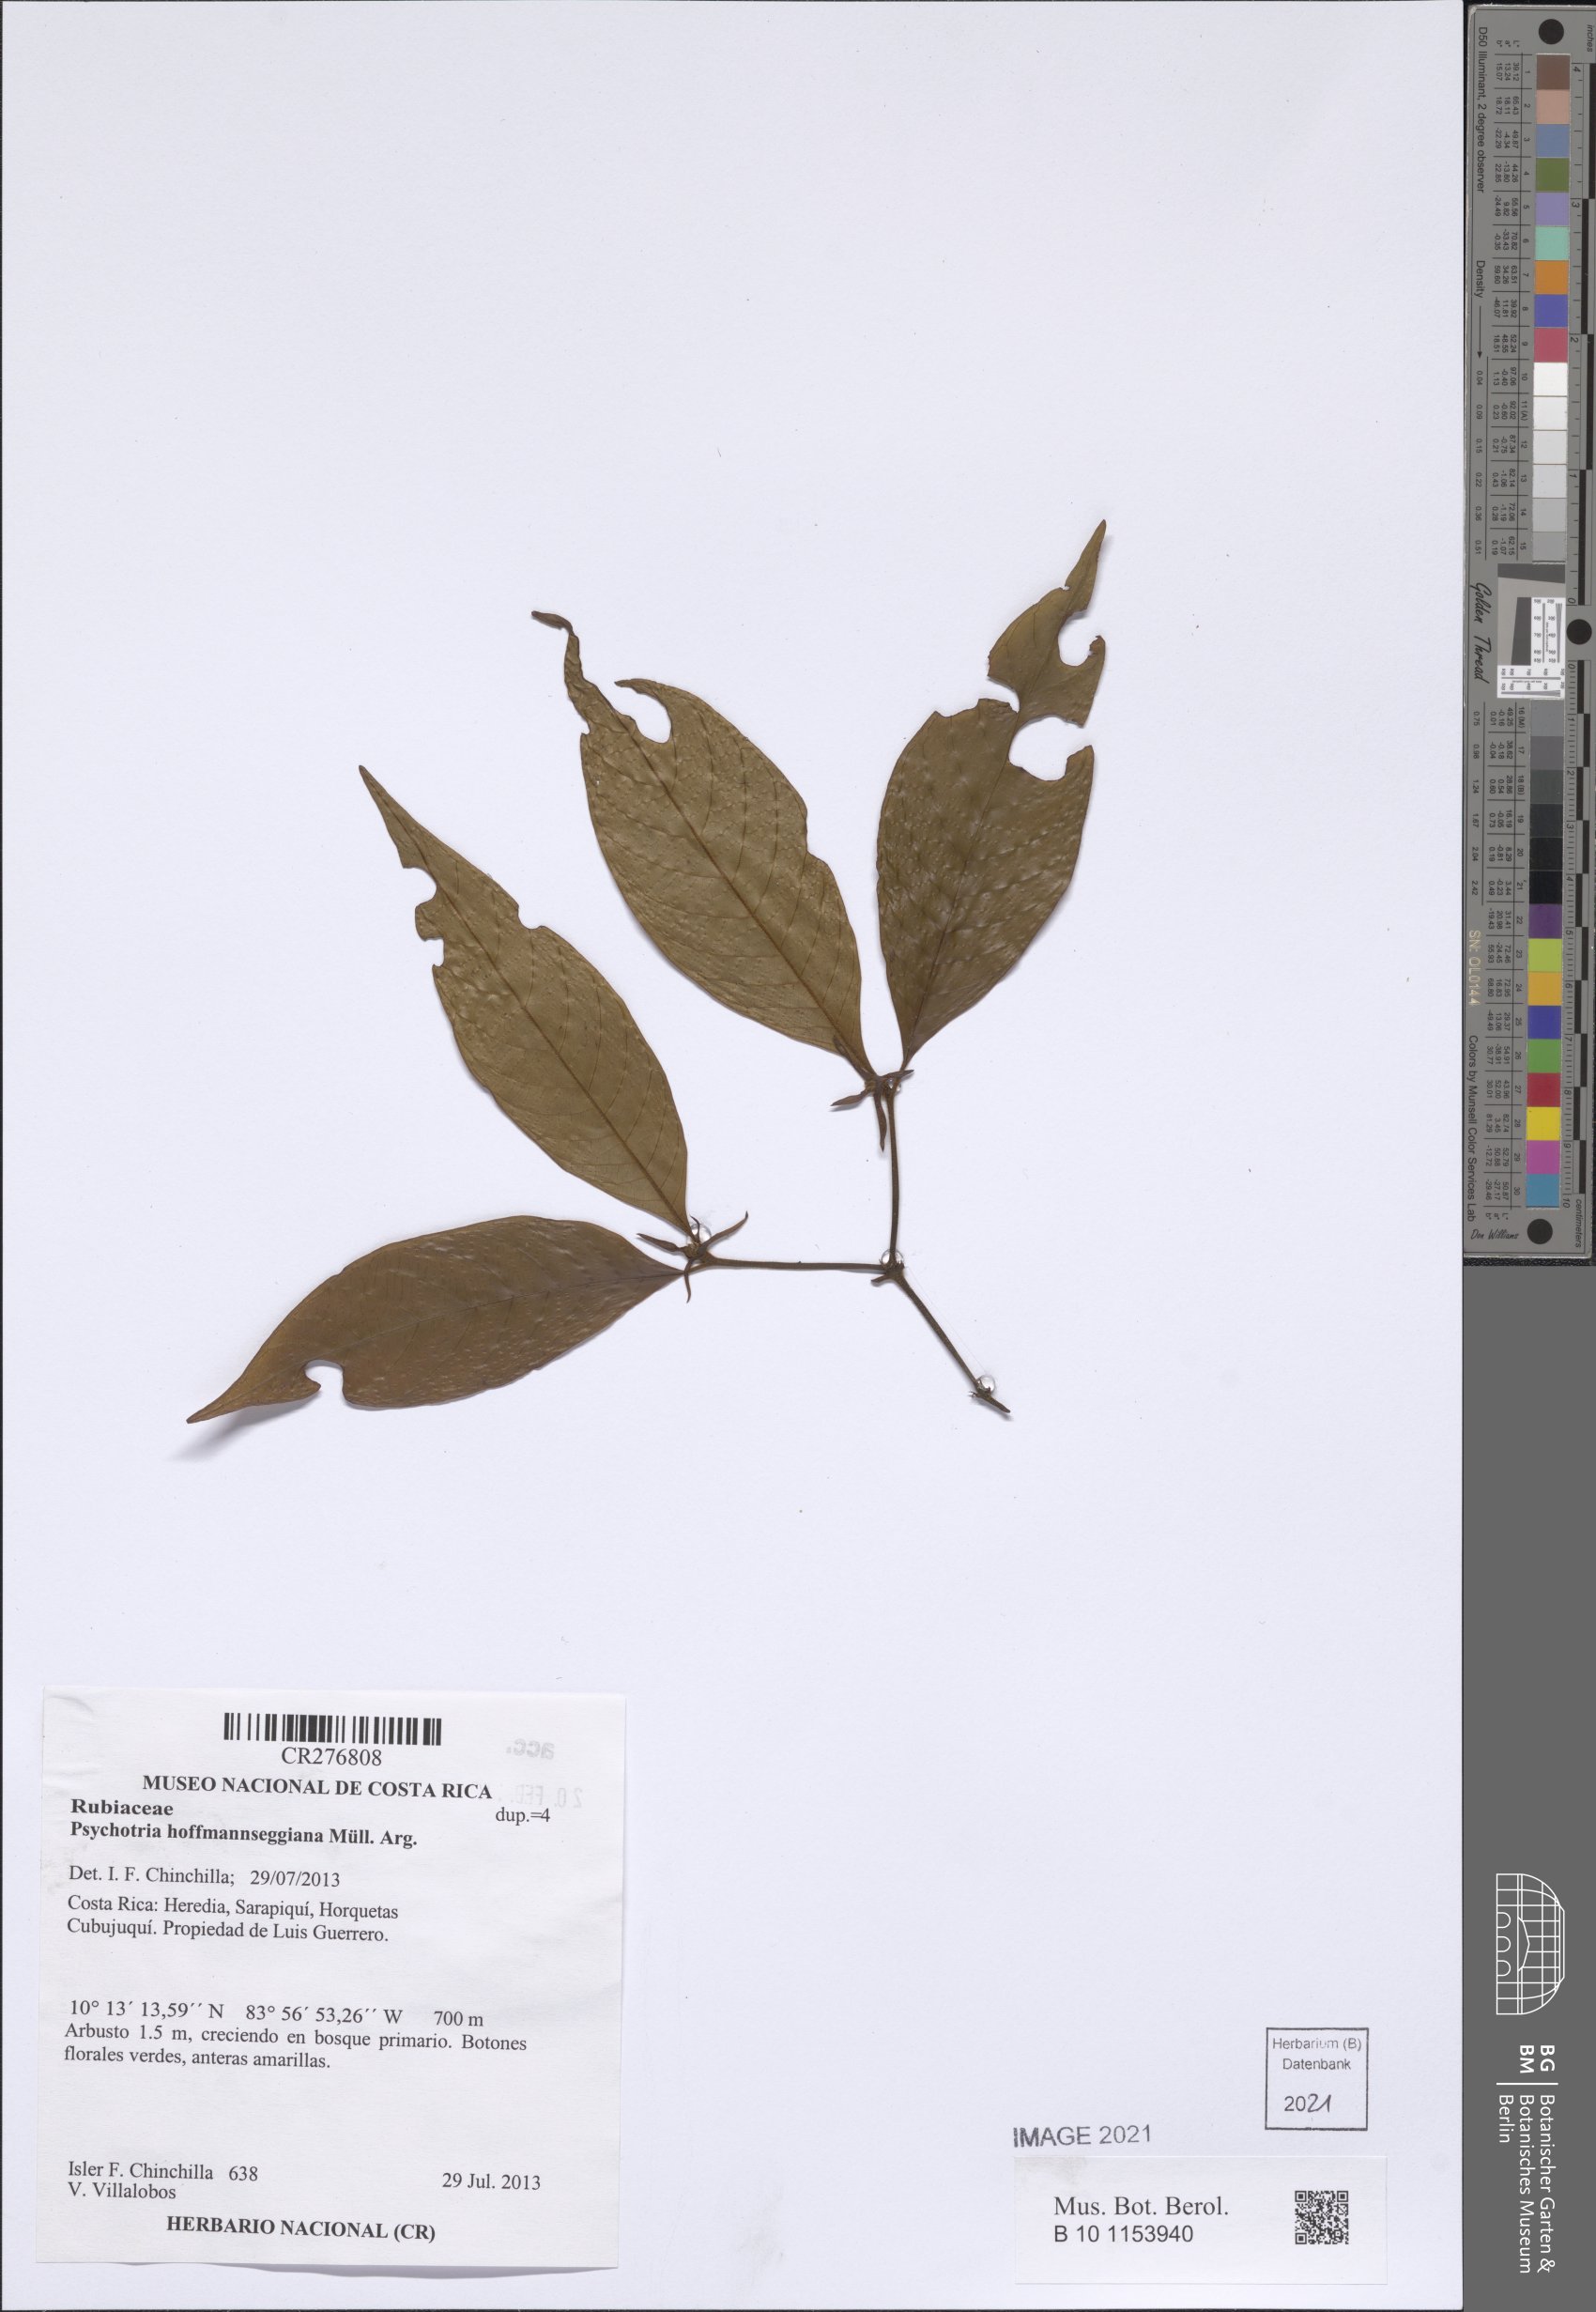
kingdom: Plantae
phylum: Tracheophyta
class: Magnoliopsida
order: Gentianales
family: Rubiaceae
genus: Palicourea
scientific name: Palicourea hoffmannseggiana
